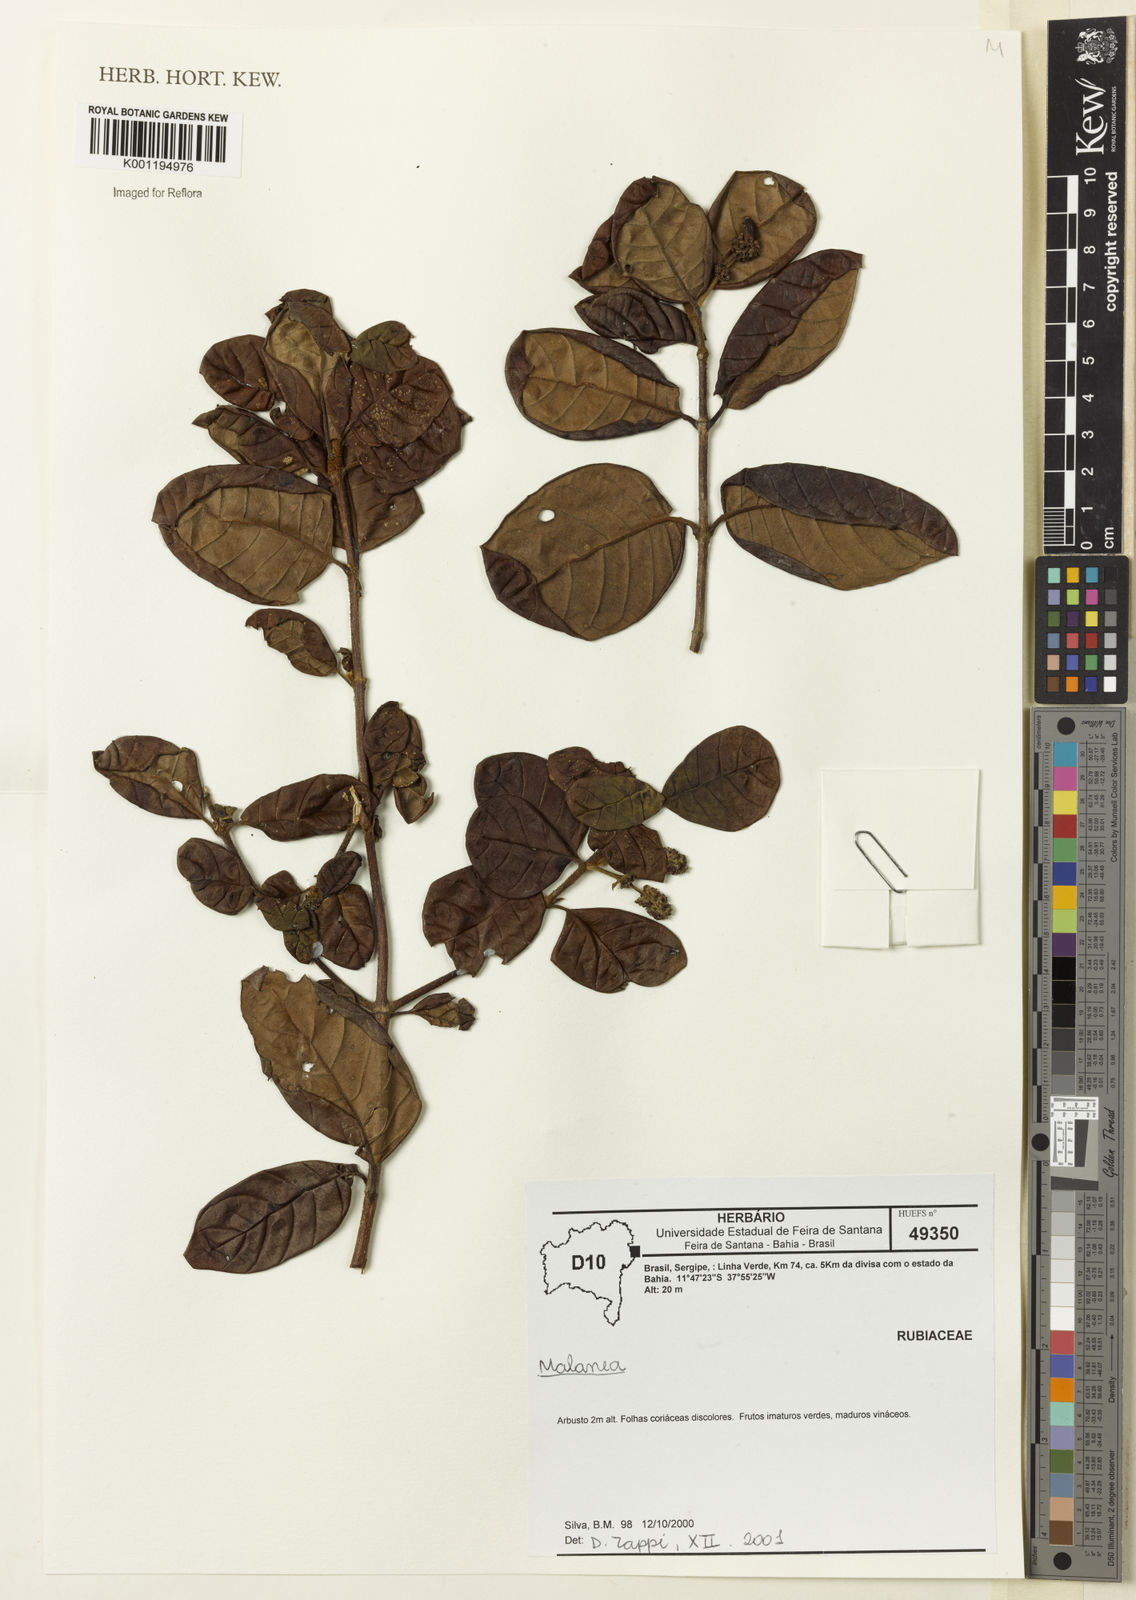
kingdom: Plantae
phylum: Tracheophyta
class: Magnoliopsida
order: Gentianales
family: Rubiaceae
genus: Malanea
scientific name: Malanea
